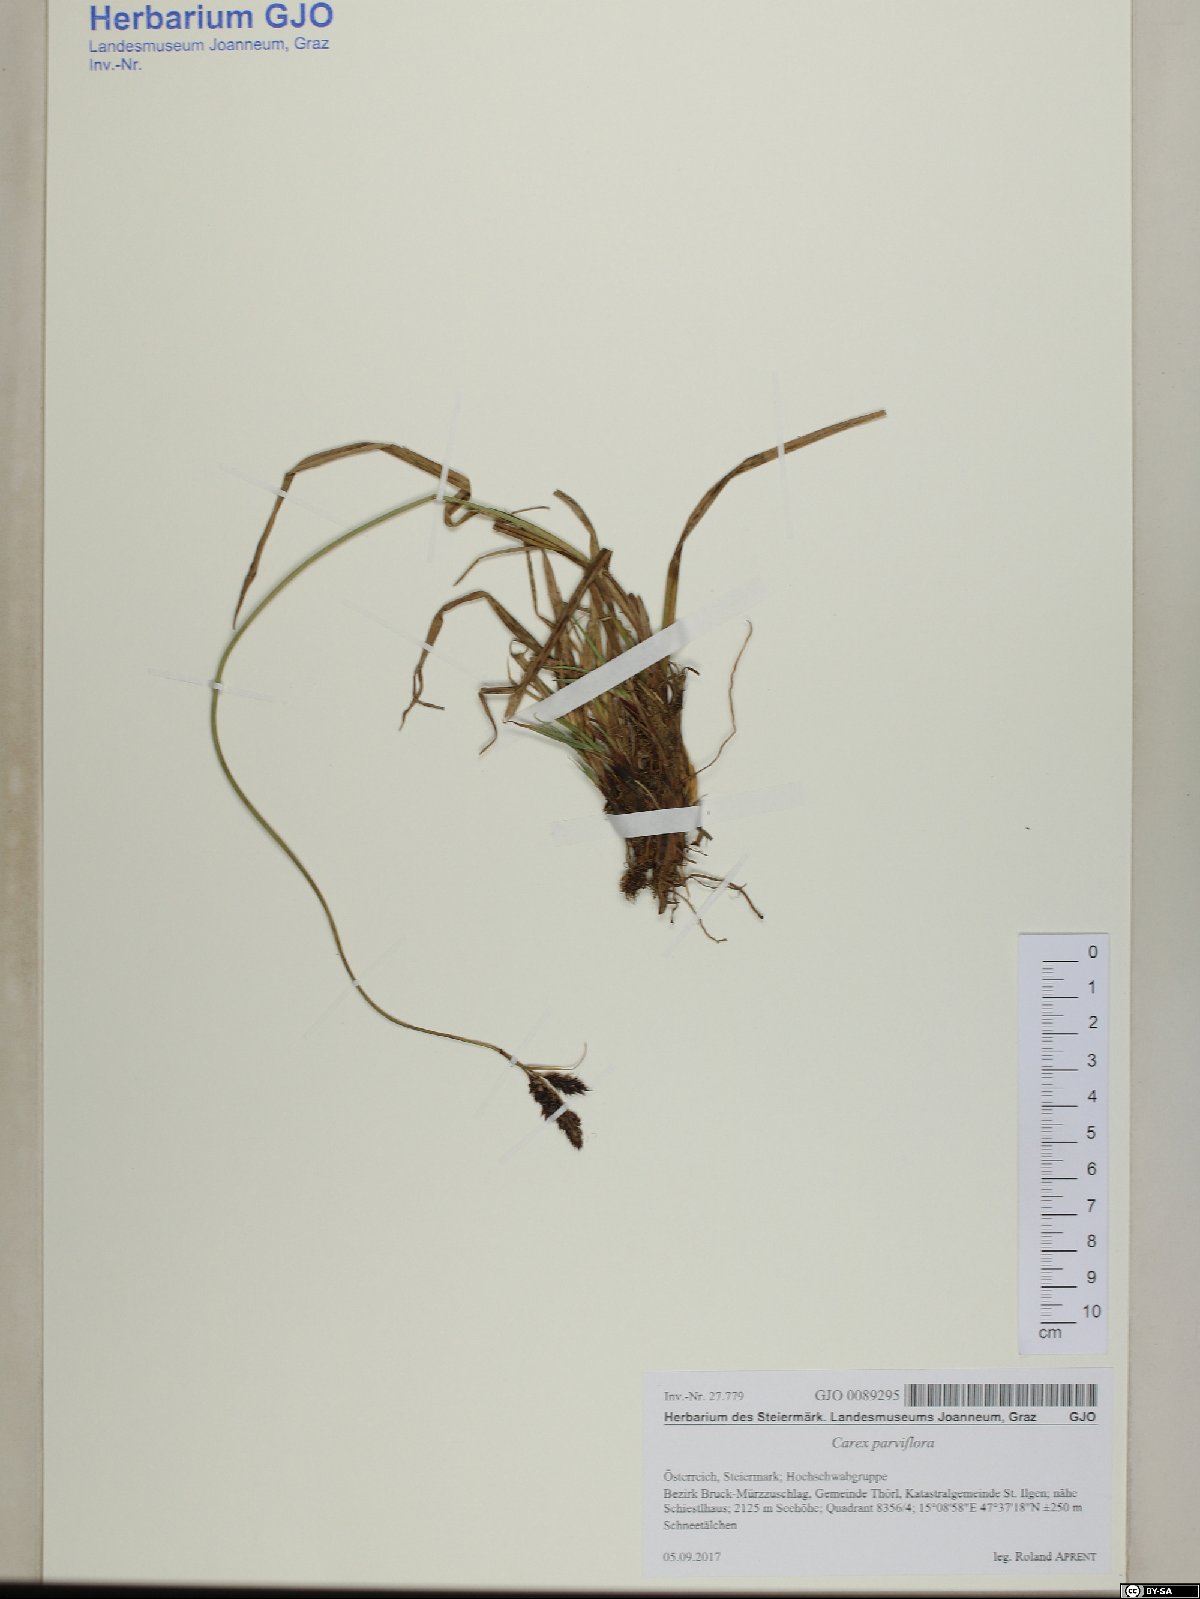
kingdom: Plantae
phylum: Tracheophyta
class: Liliopsida
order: Poales
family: Cyperaceae
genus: Carex
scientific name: Carex parviflora
